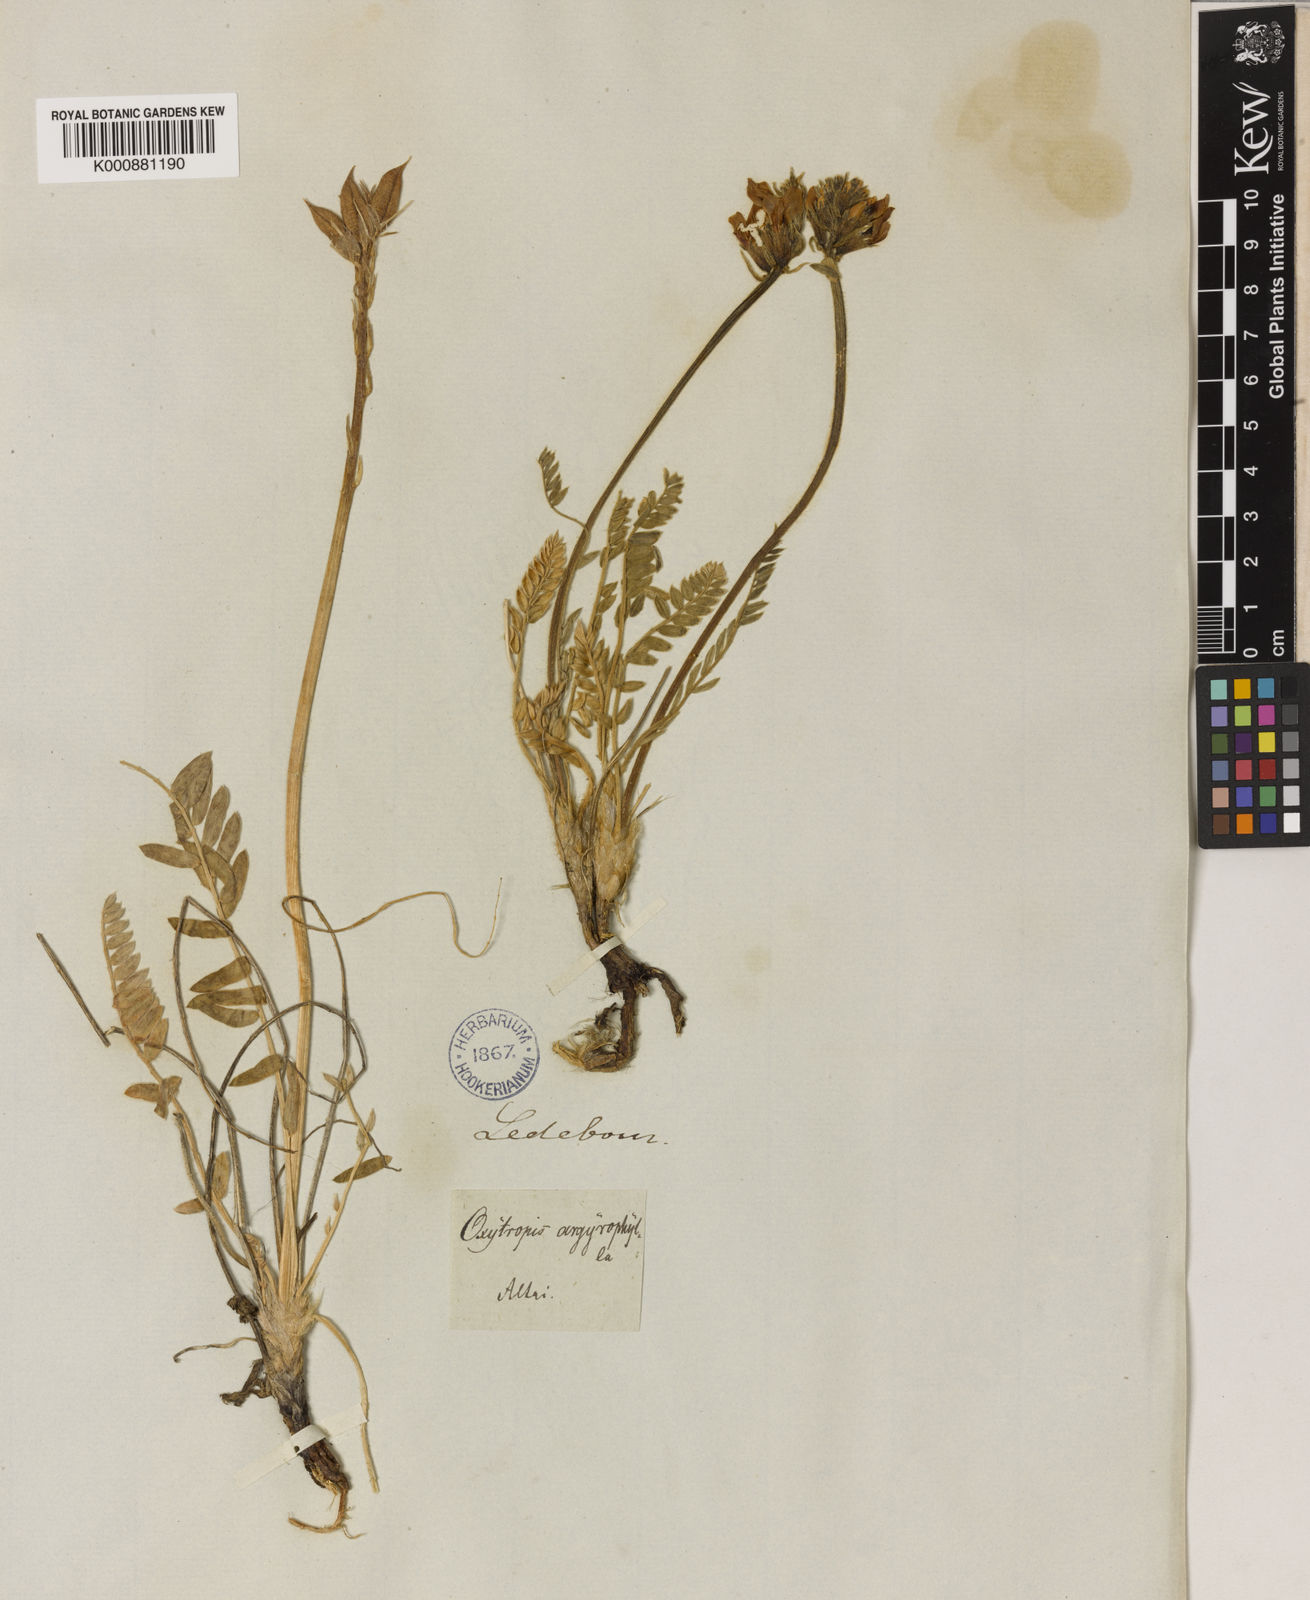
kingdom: Plantae
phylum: Tracheophyta
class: Magnoliopsida
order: Fabales
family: Fabaceae
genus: Oxytropis
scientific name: Oxytropis argentata
